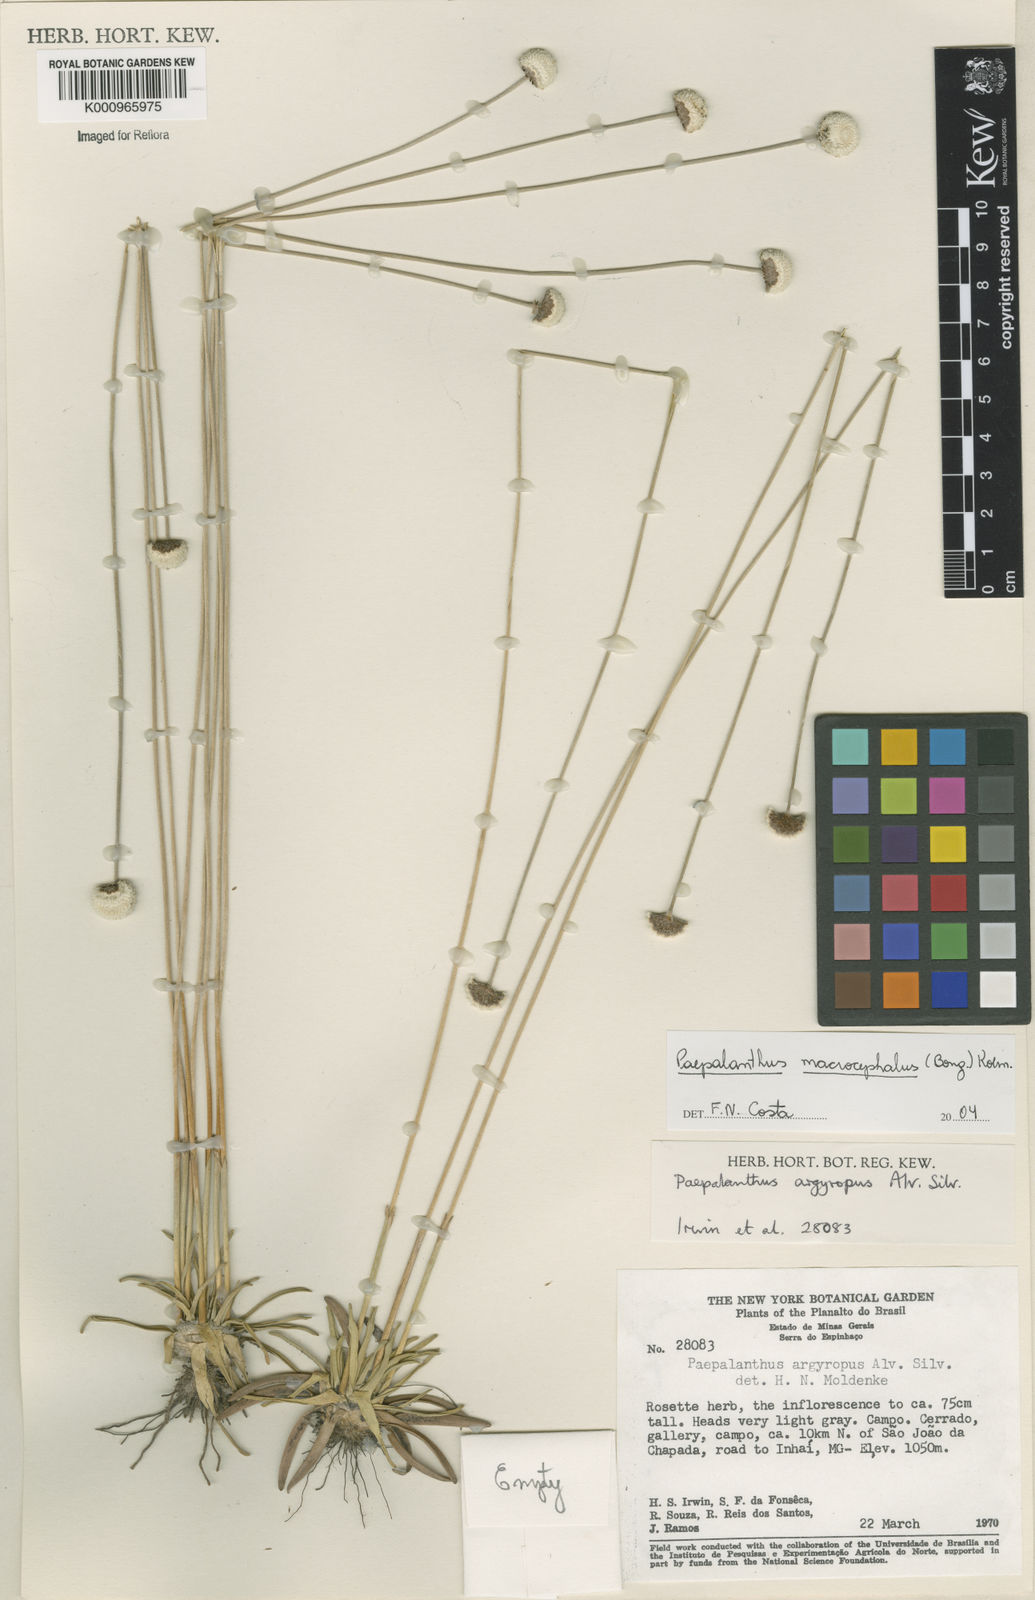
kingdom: Plantae
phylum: Tracheophyta
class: Liliopsida
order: Poales
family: Eriocaulaceae
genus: Paepalanthus
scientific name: Paepalanthus
